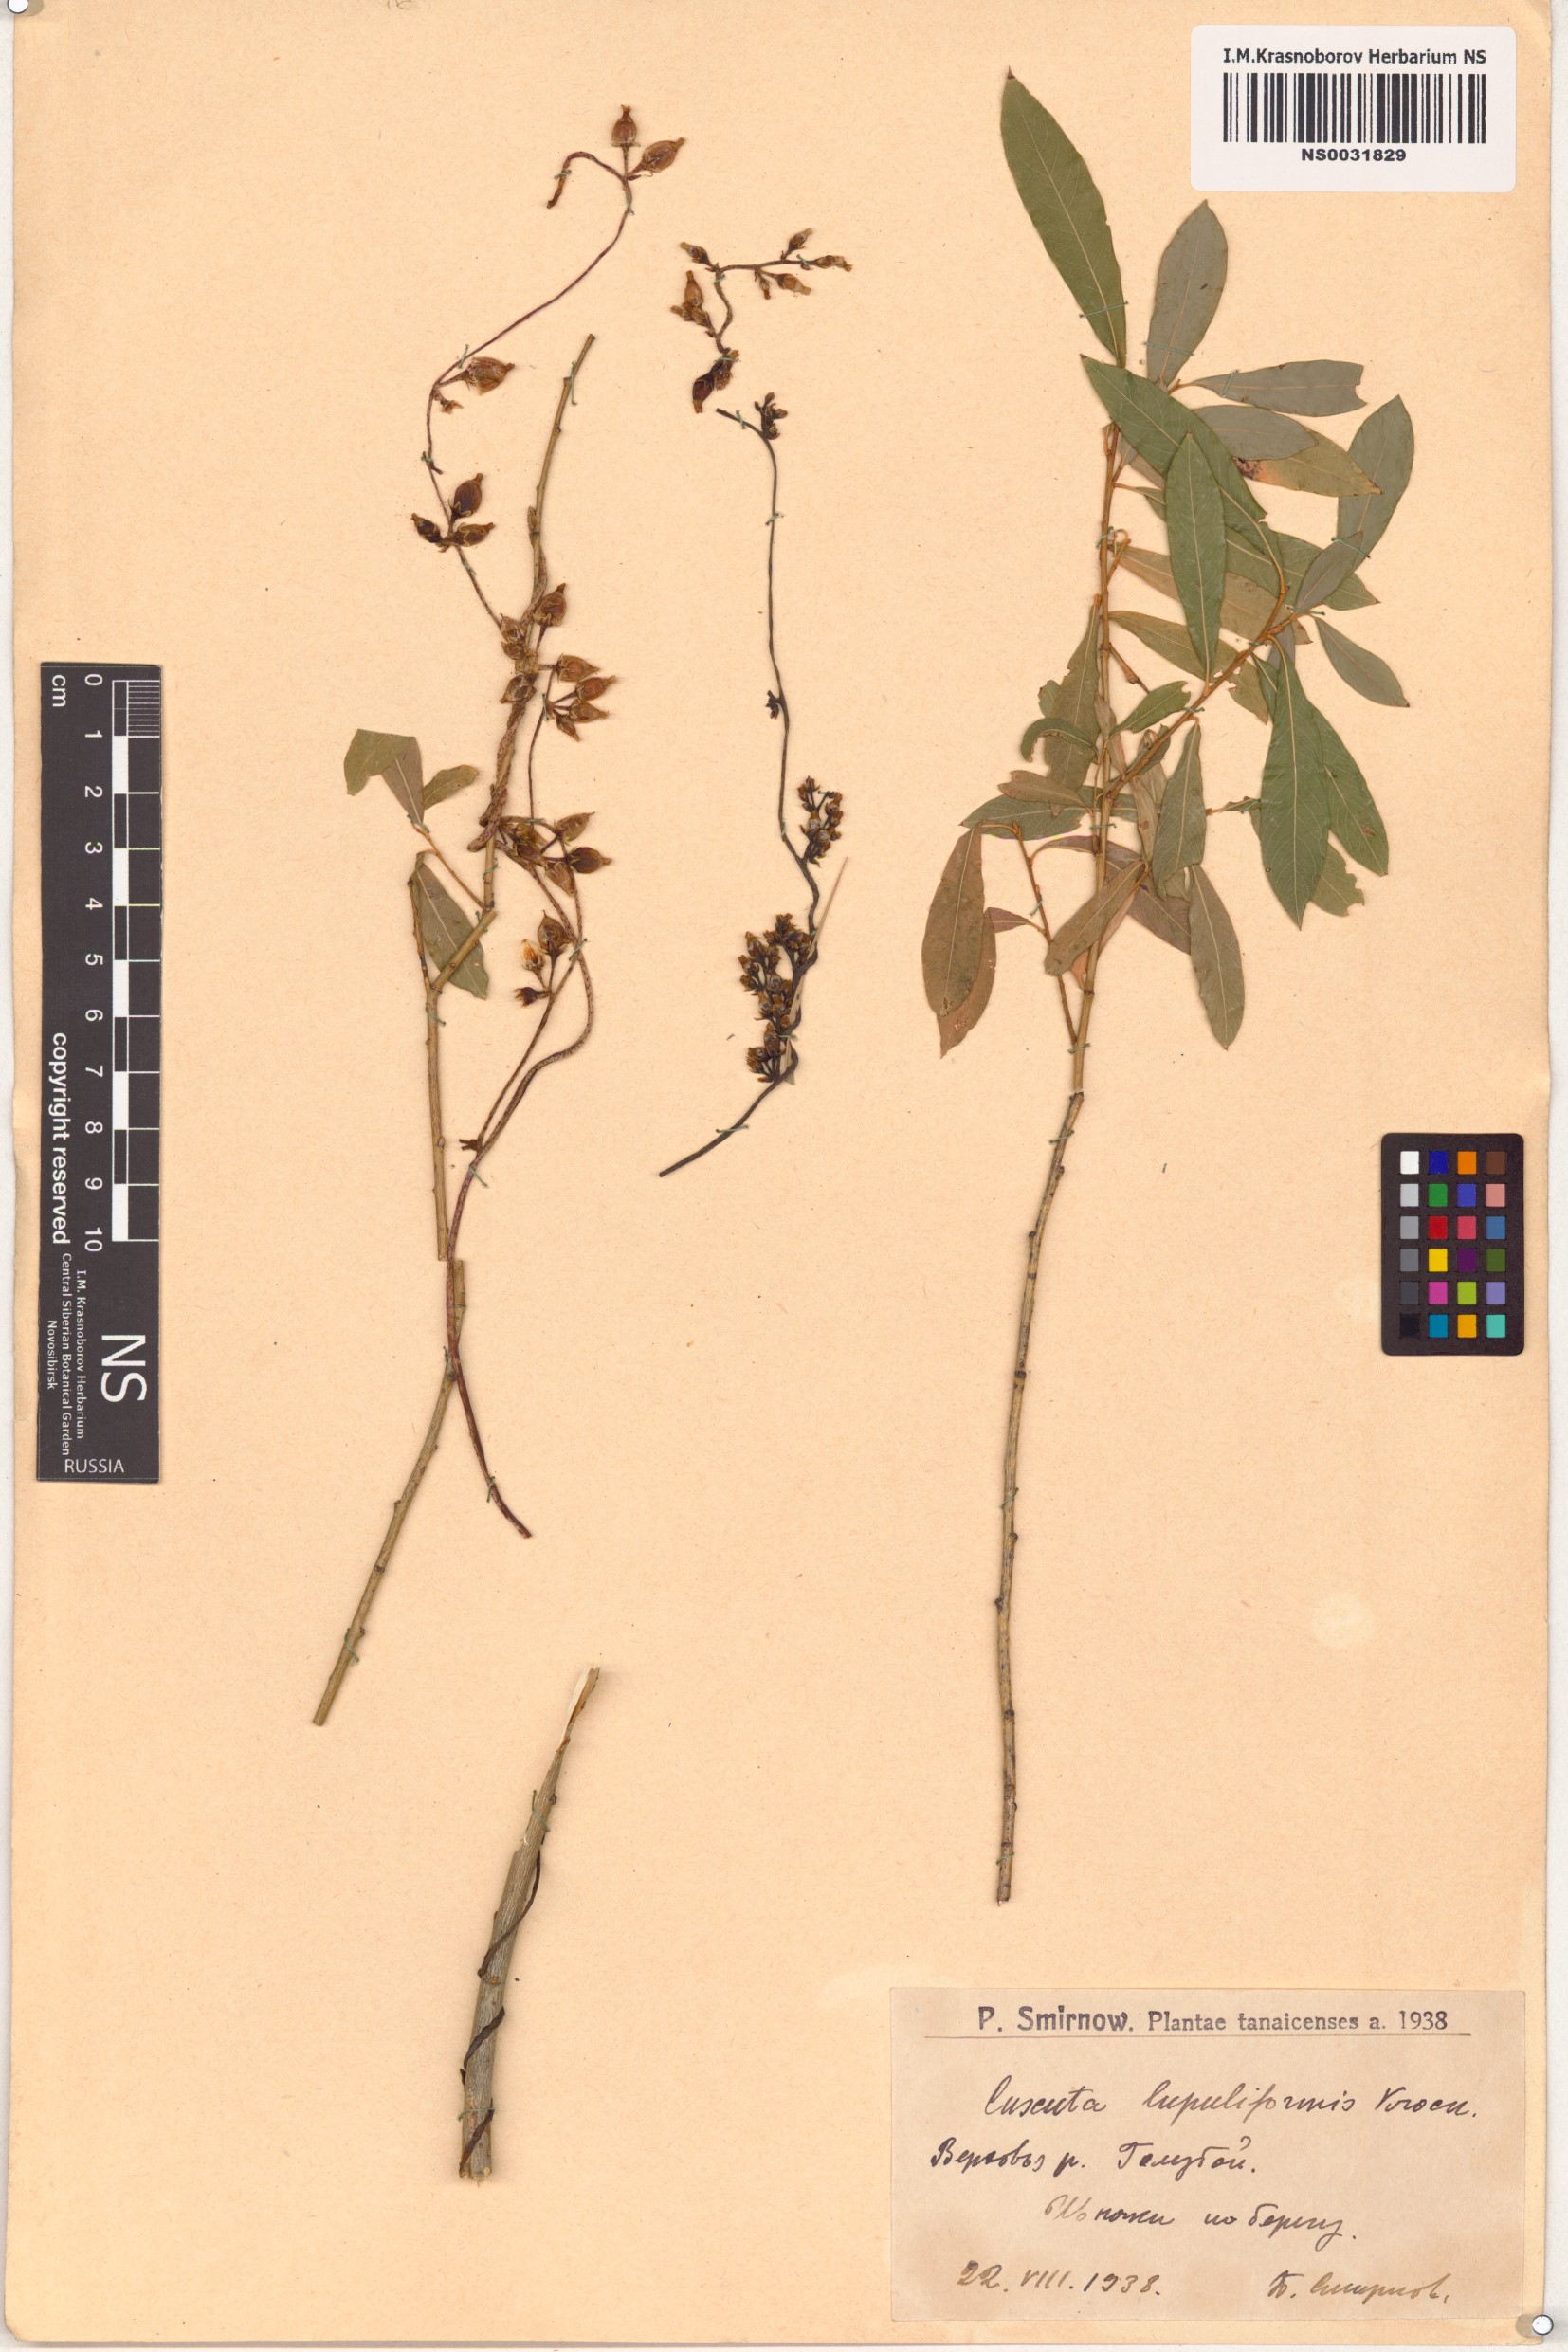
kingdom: Plantae
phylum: Tracheophyta
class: Magnoliopsida
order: Solanales
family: Convolvulaceae
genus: Cuscuta
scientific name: Cuscuta lupuliformis
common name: Hop dodder
